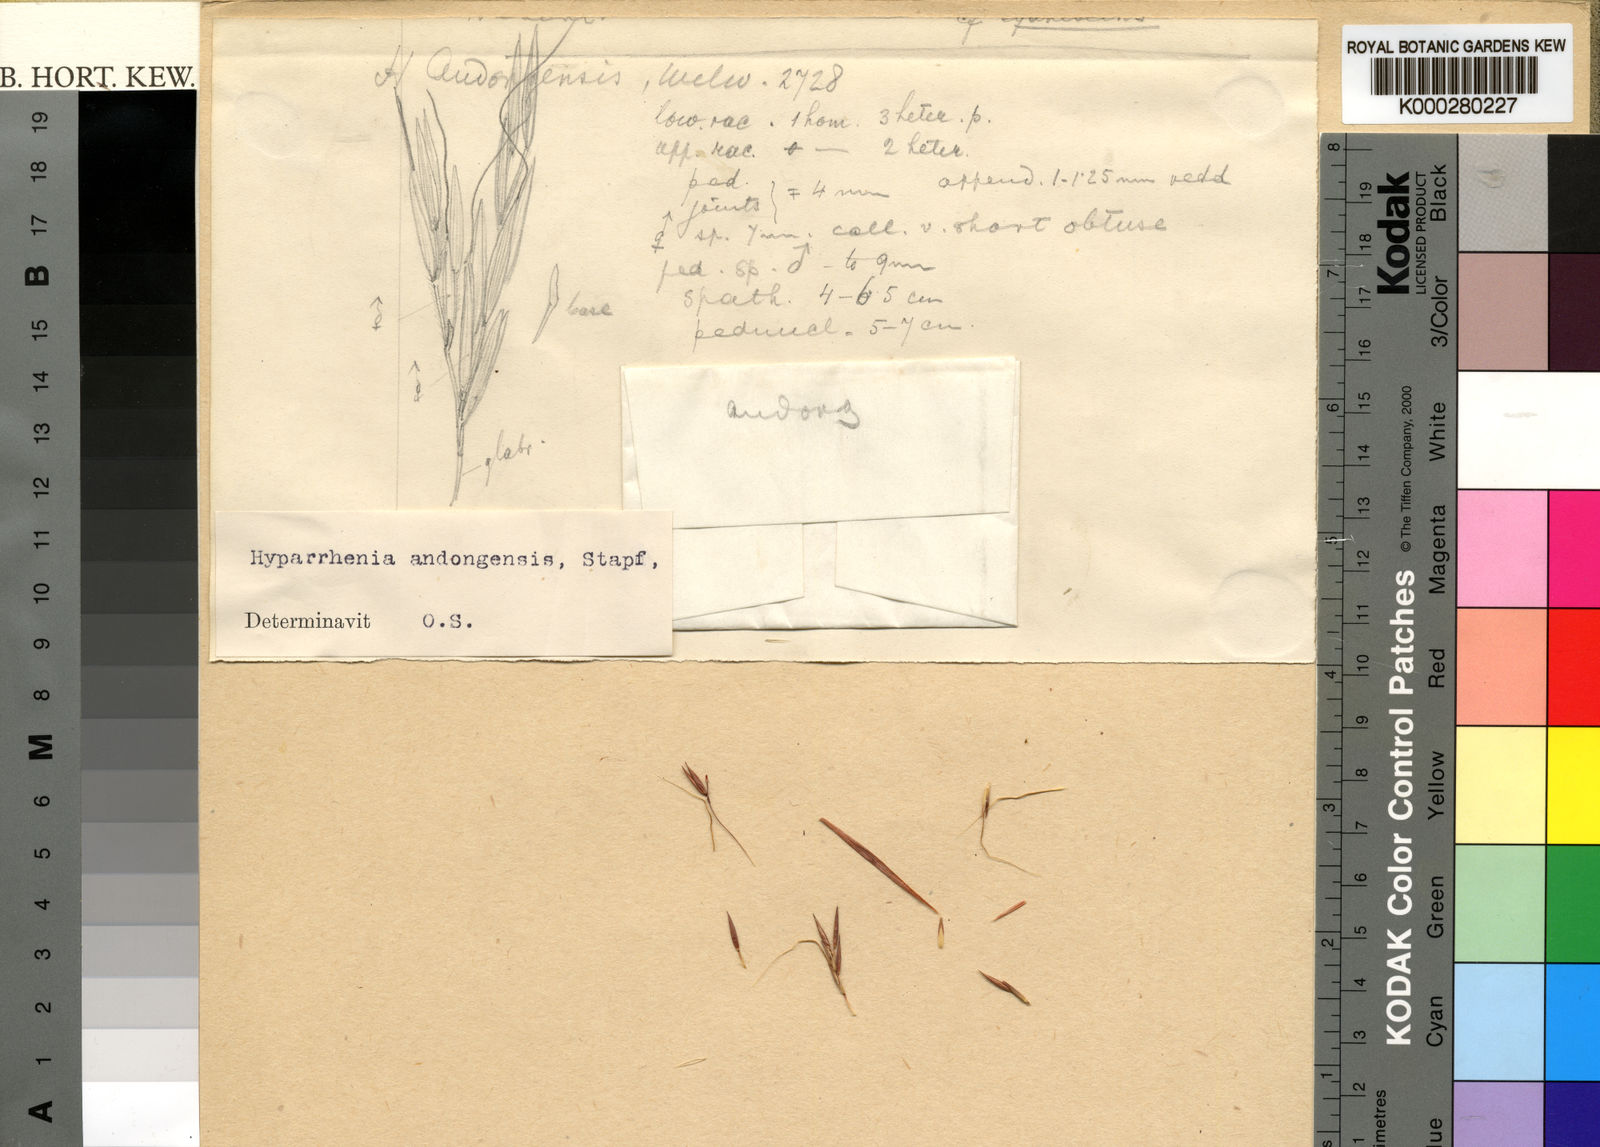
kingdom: Plantae
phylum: Tracheophyta
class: Liliopsida
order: Poales
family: Poaceae
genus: Hyparrhenia
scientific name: Hyparrhenia andongensis
